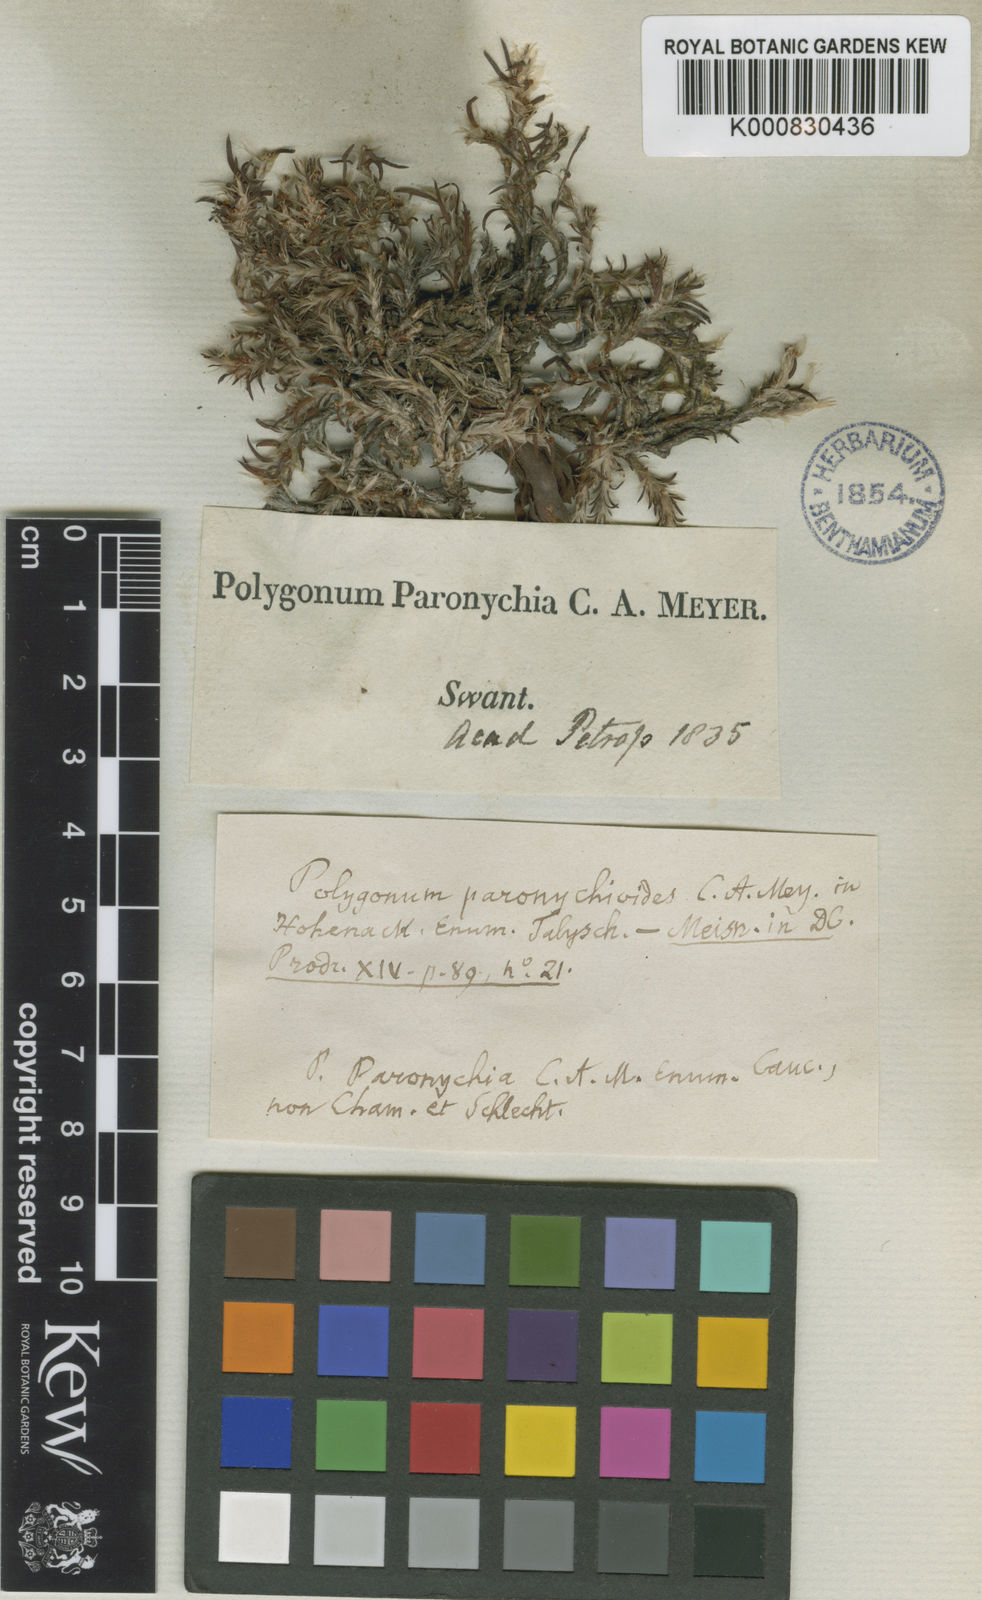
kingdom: Plantae
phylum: Tracheophyta
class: Magnoliopsida
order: Caryophyllales
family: Polygonaceae
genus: Polygonum
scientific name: Polygonum paronychioides
